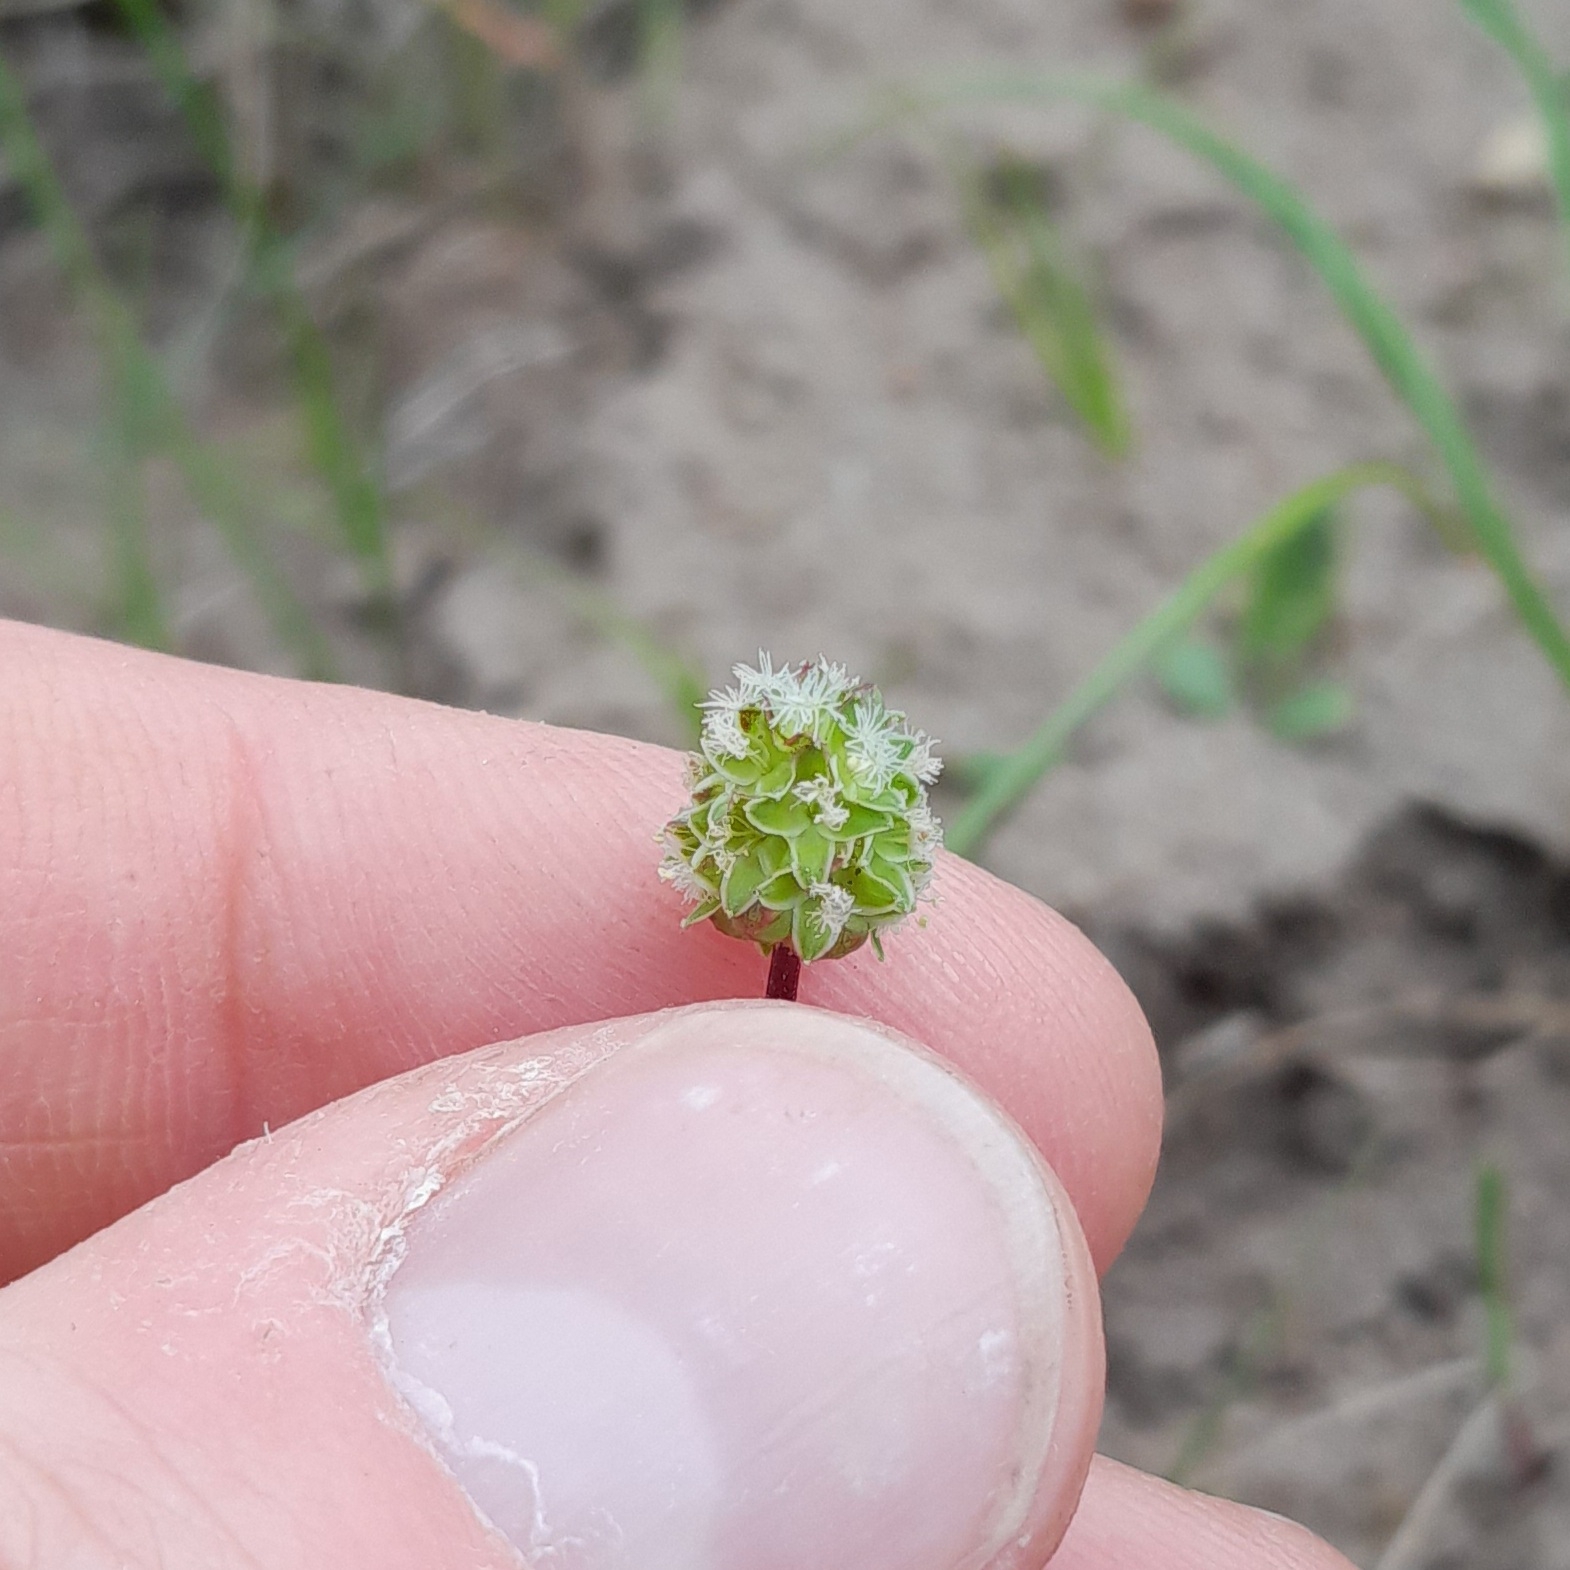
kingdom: Plantae
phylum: Tracheophyta
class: Magnoliopsida
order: Rosales
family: Rosaceae
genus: Poterium
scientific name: Poterium sanguisorba
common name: Bibernelle
